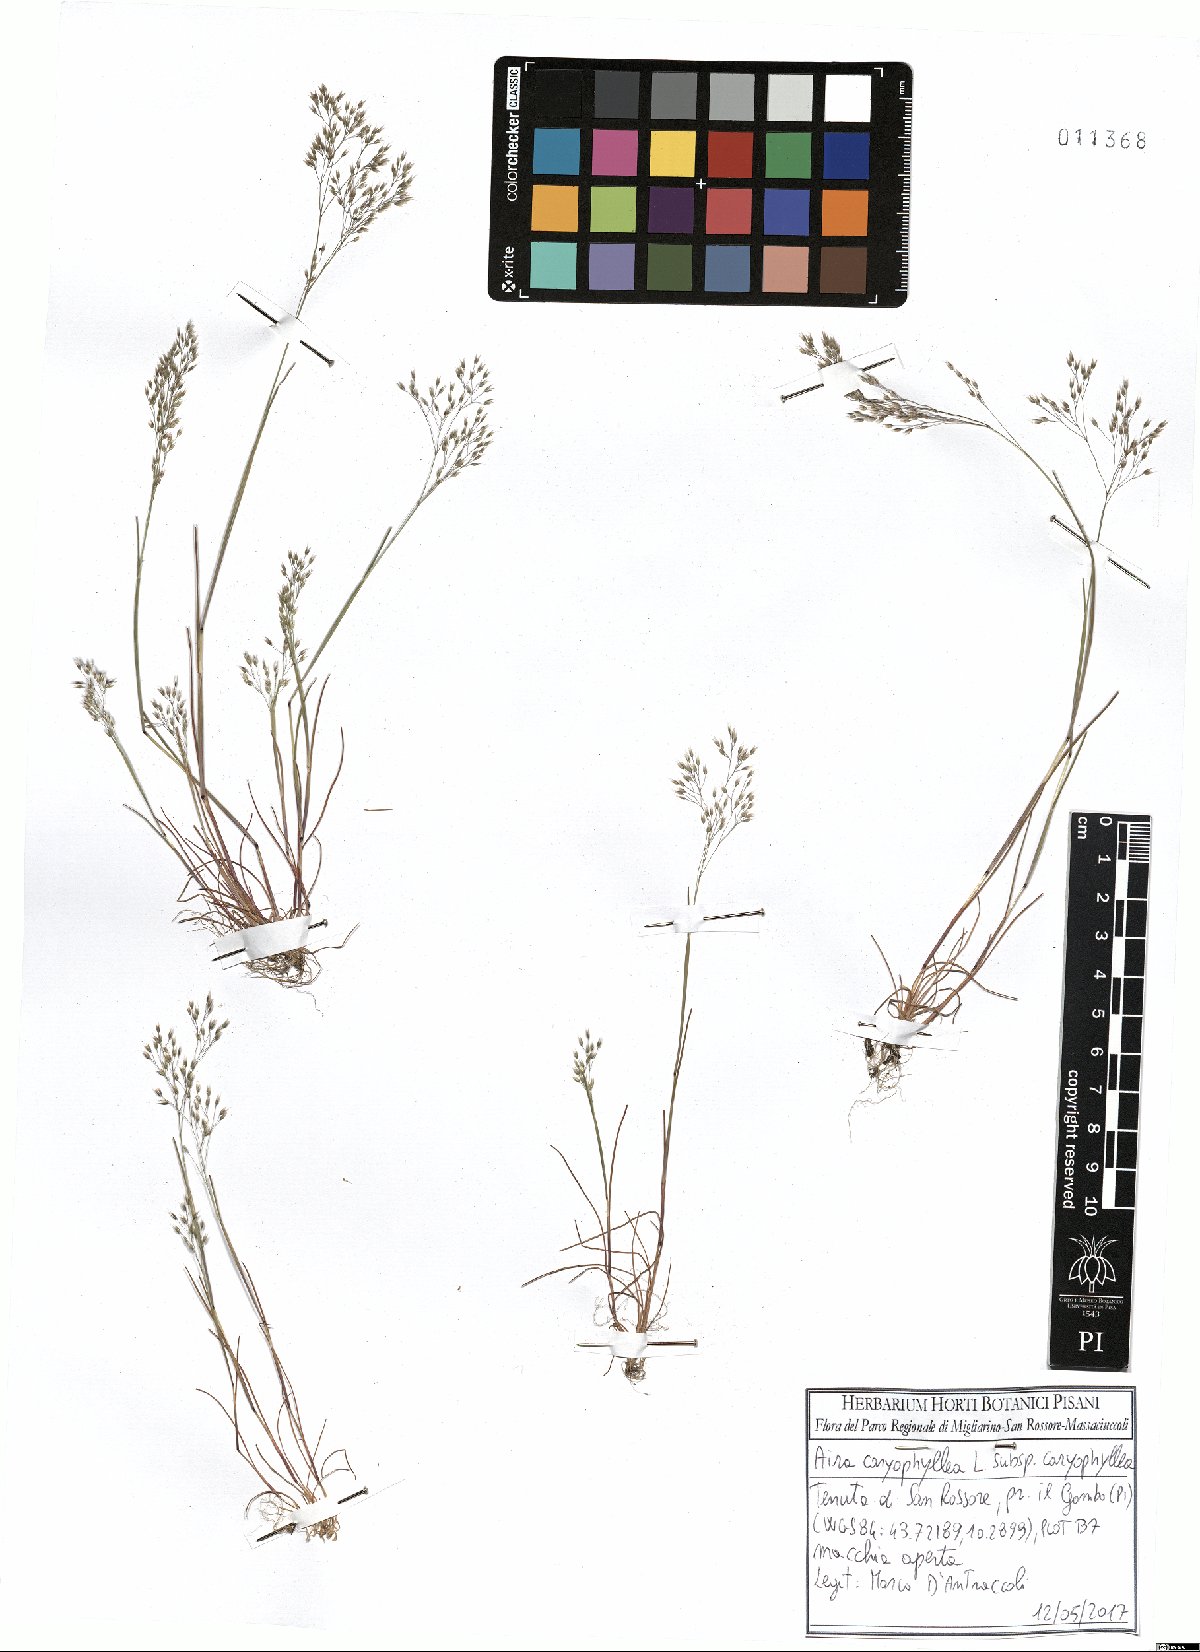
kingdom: Plantae
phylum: Tracheophyta
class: Liliopsida
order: Poales
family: Poaceae
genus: Aira
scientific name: Aira caryophyllea
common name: Silver hairgrass
